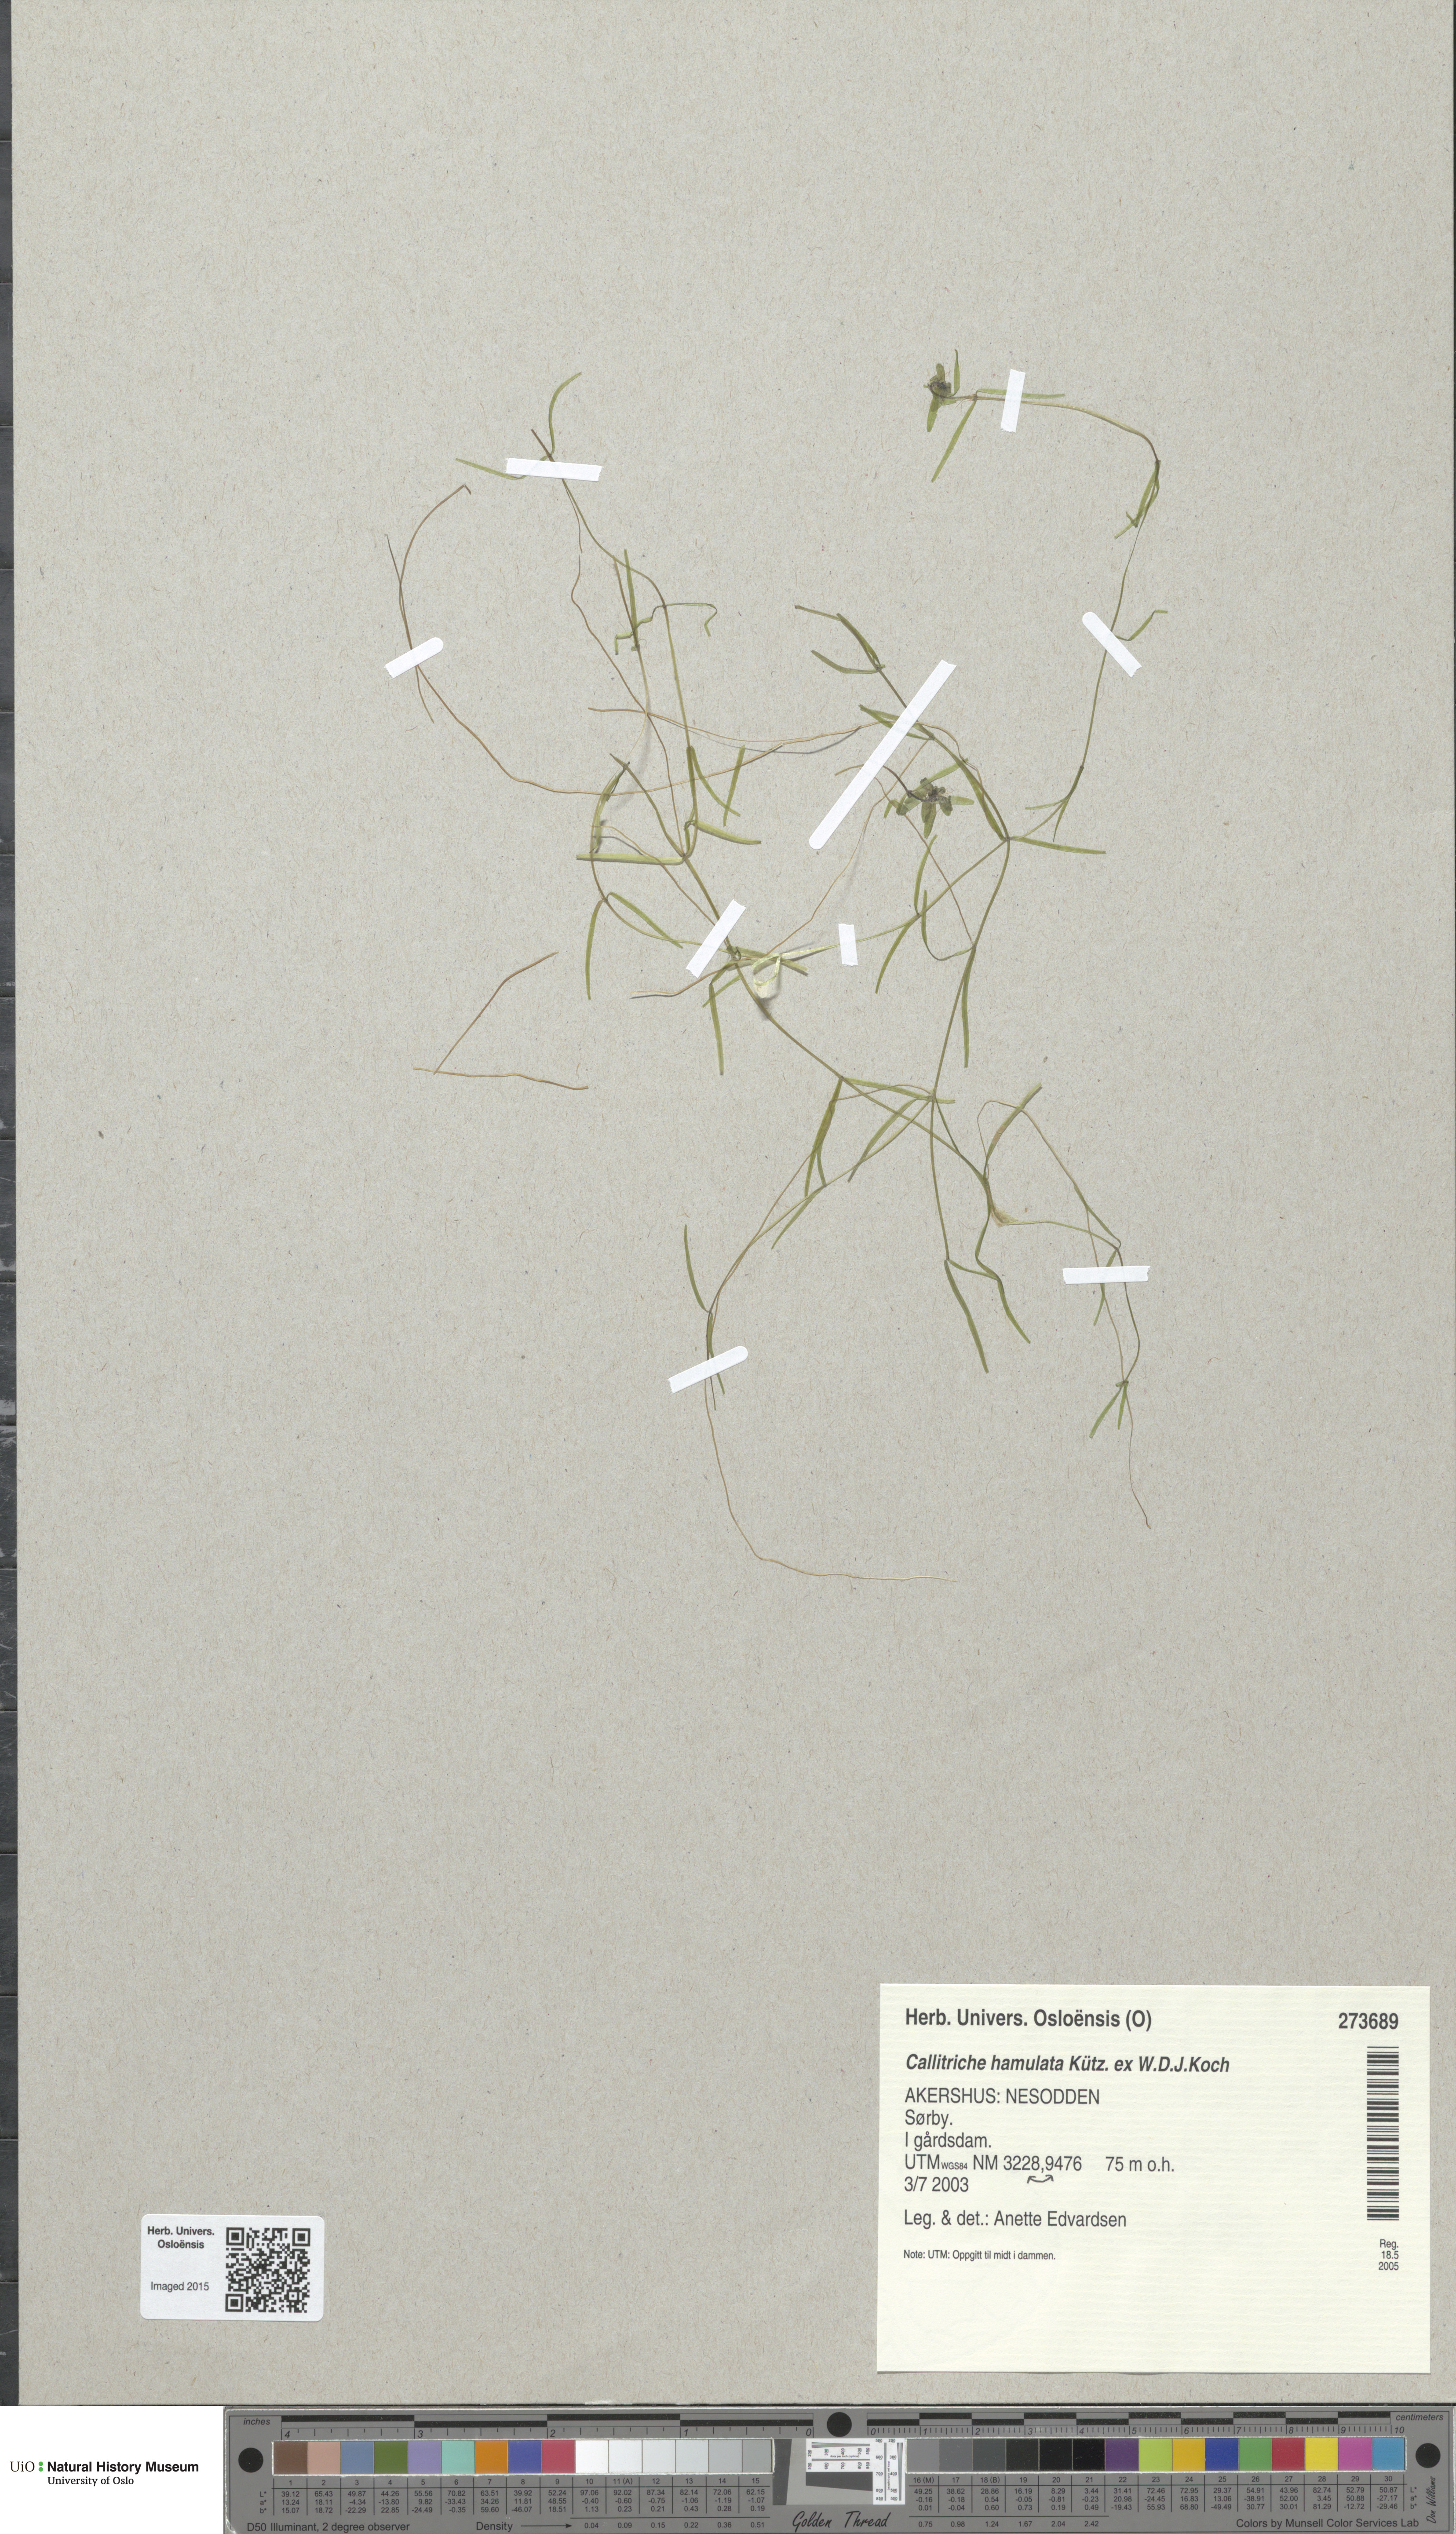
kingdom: Plantae
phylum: Tracheophyta
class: Magnoliopsida
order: Lamiales
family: Plantaginaceae
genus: Callitriche
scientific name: Callitriche hamulata
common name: Intermediate water-starwort
